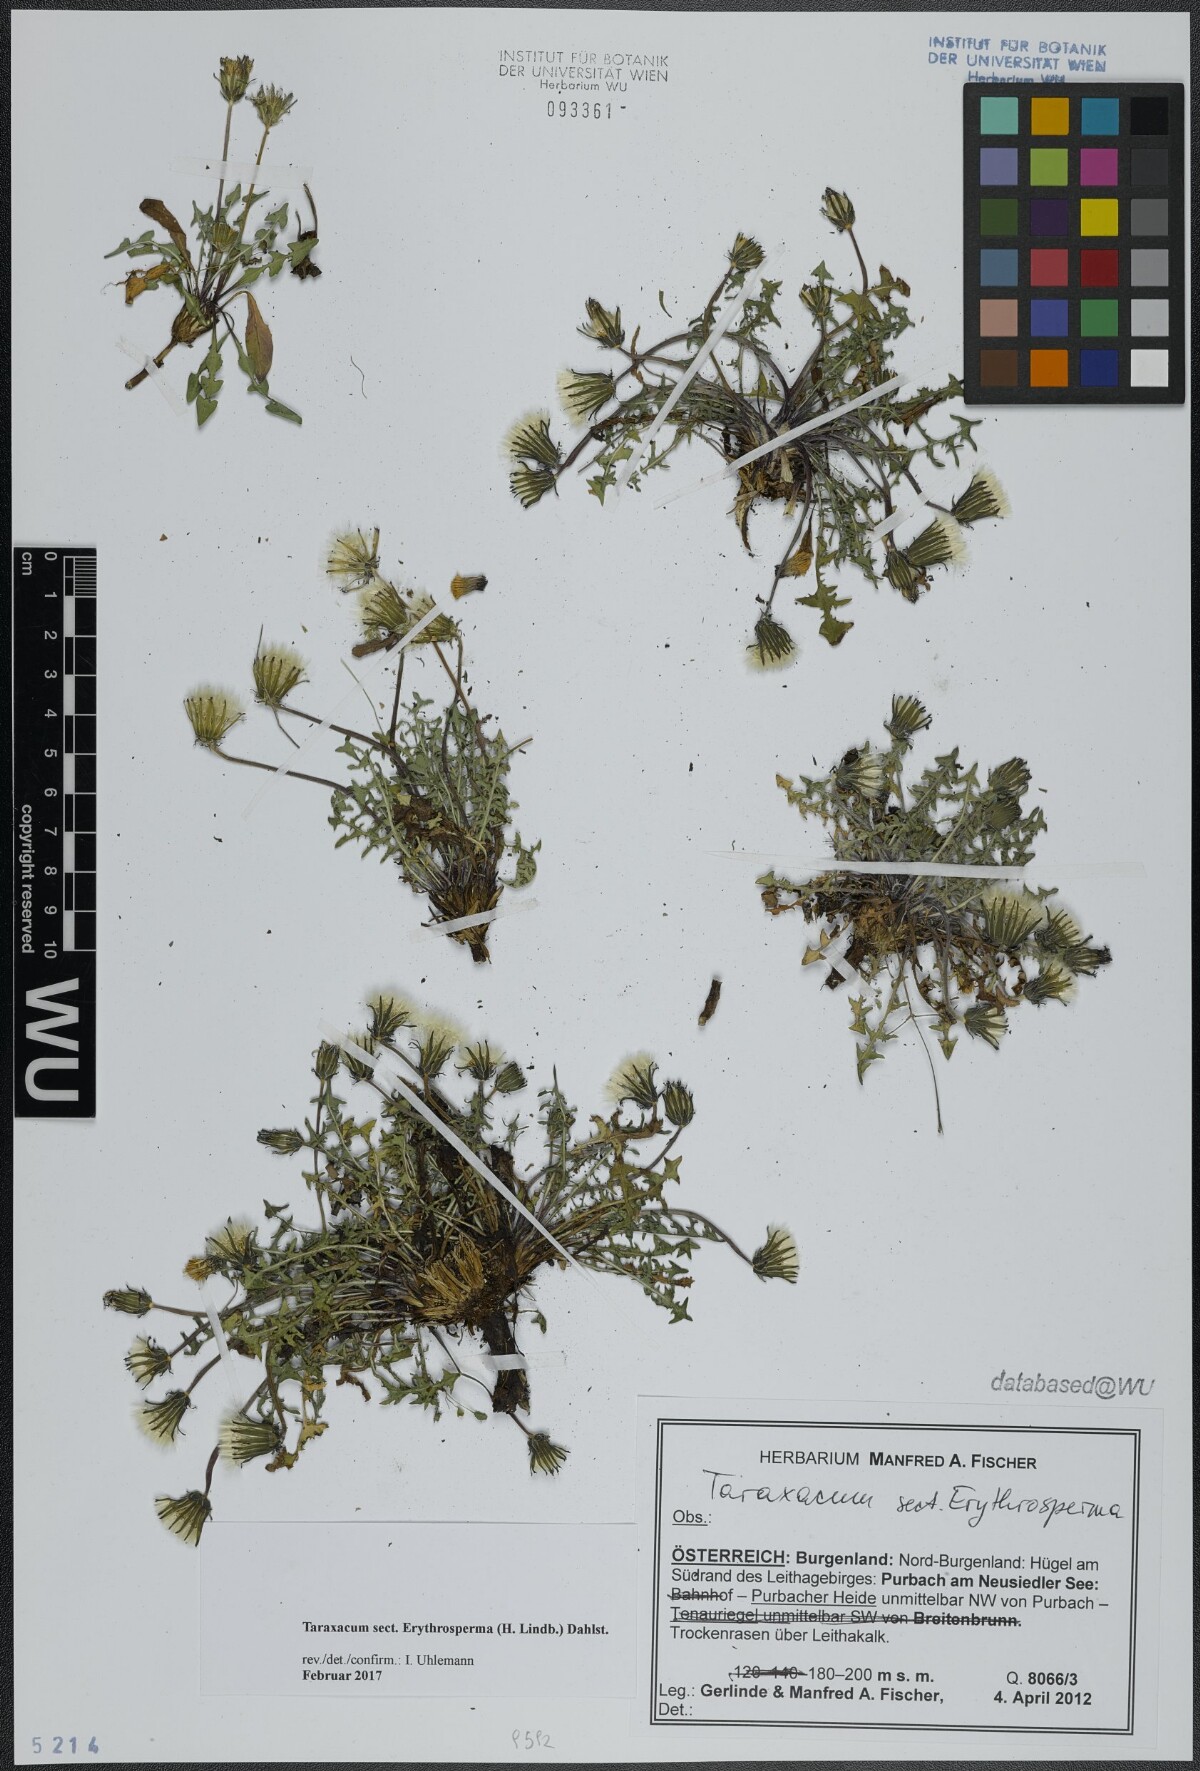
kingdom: Plantae
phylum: Tracheophyta
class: Magnoliopsida
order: Asterales
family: Asteraceae
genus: Taraxacum
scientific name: Taraxacum
